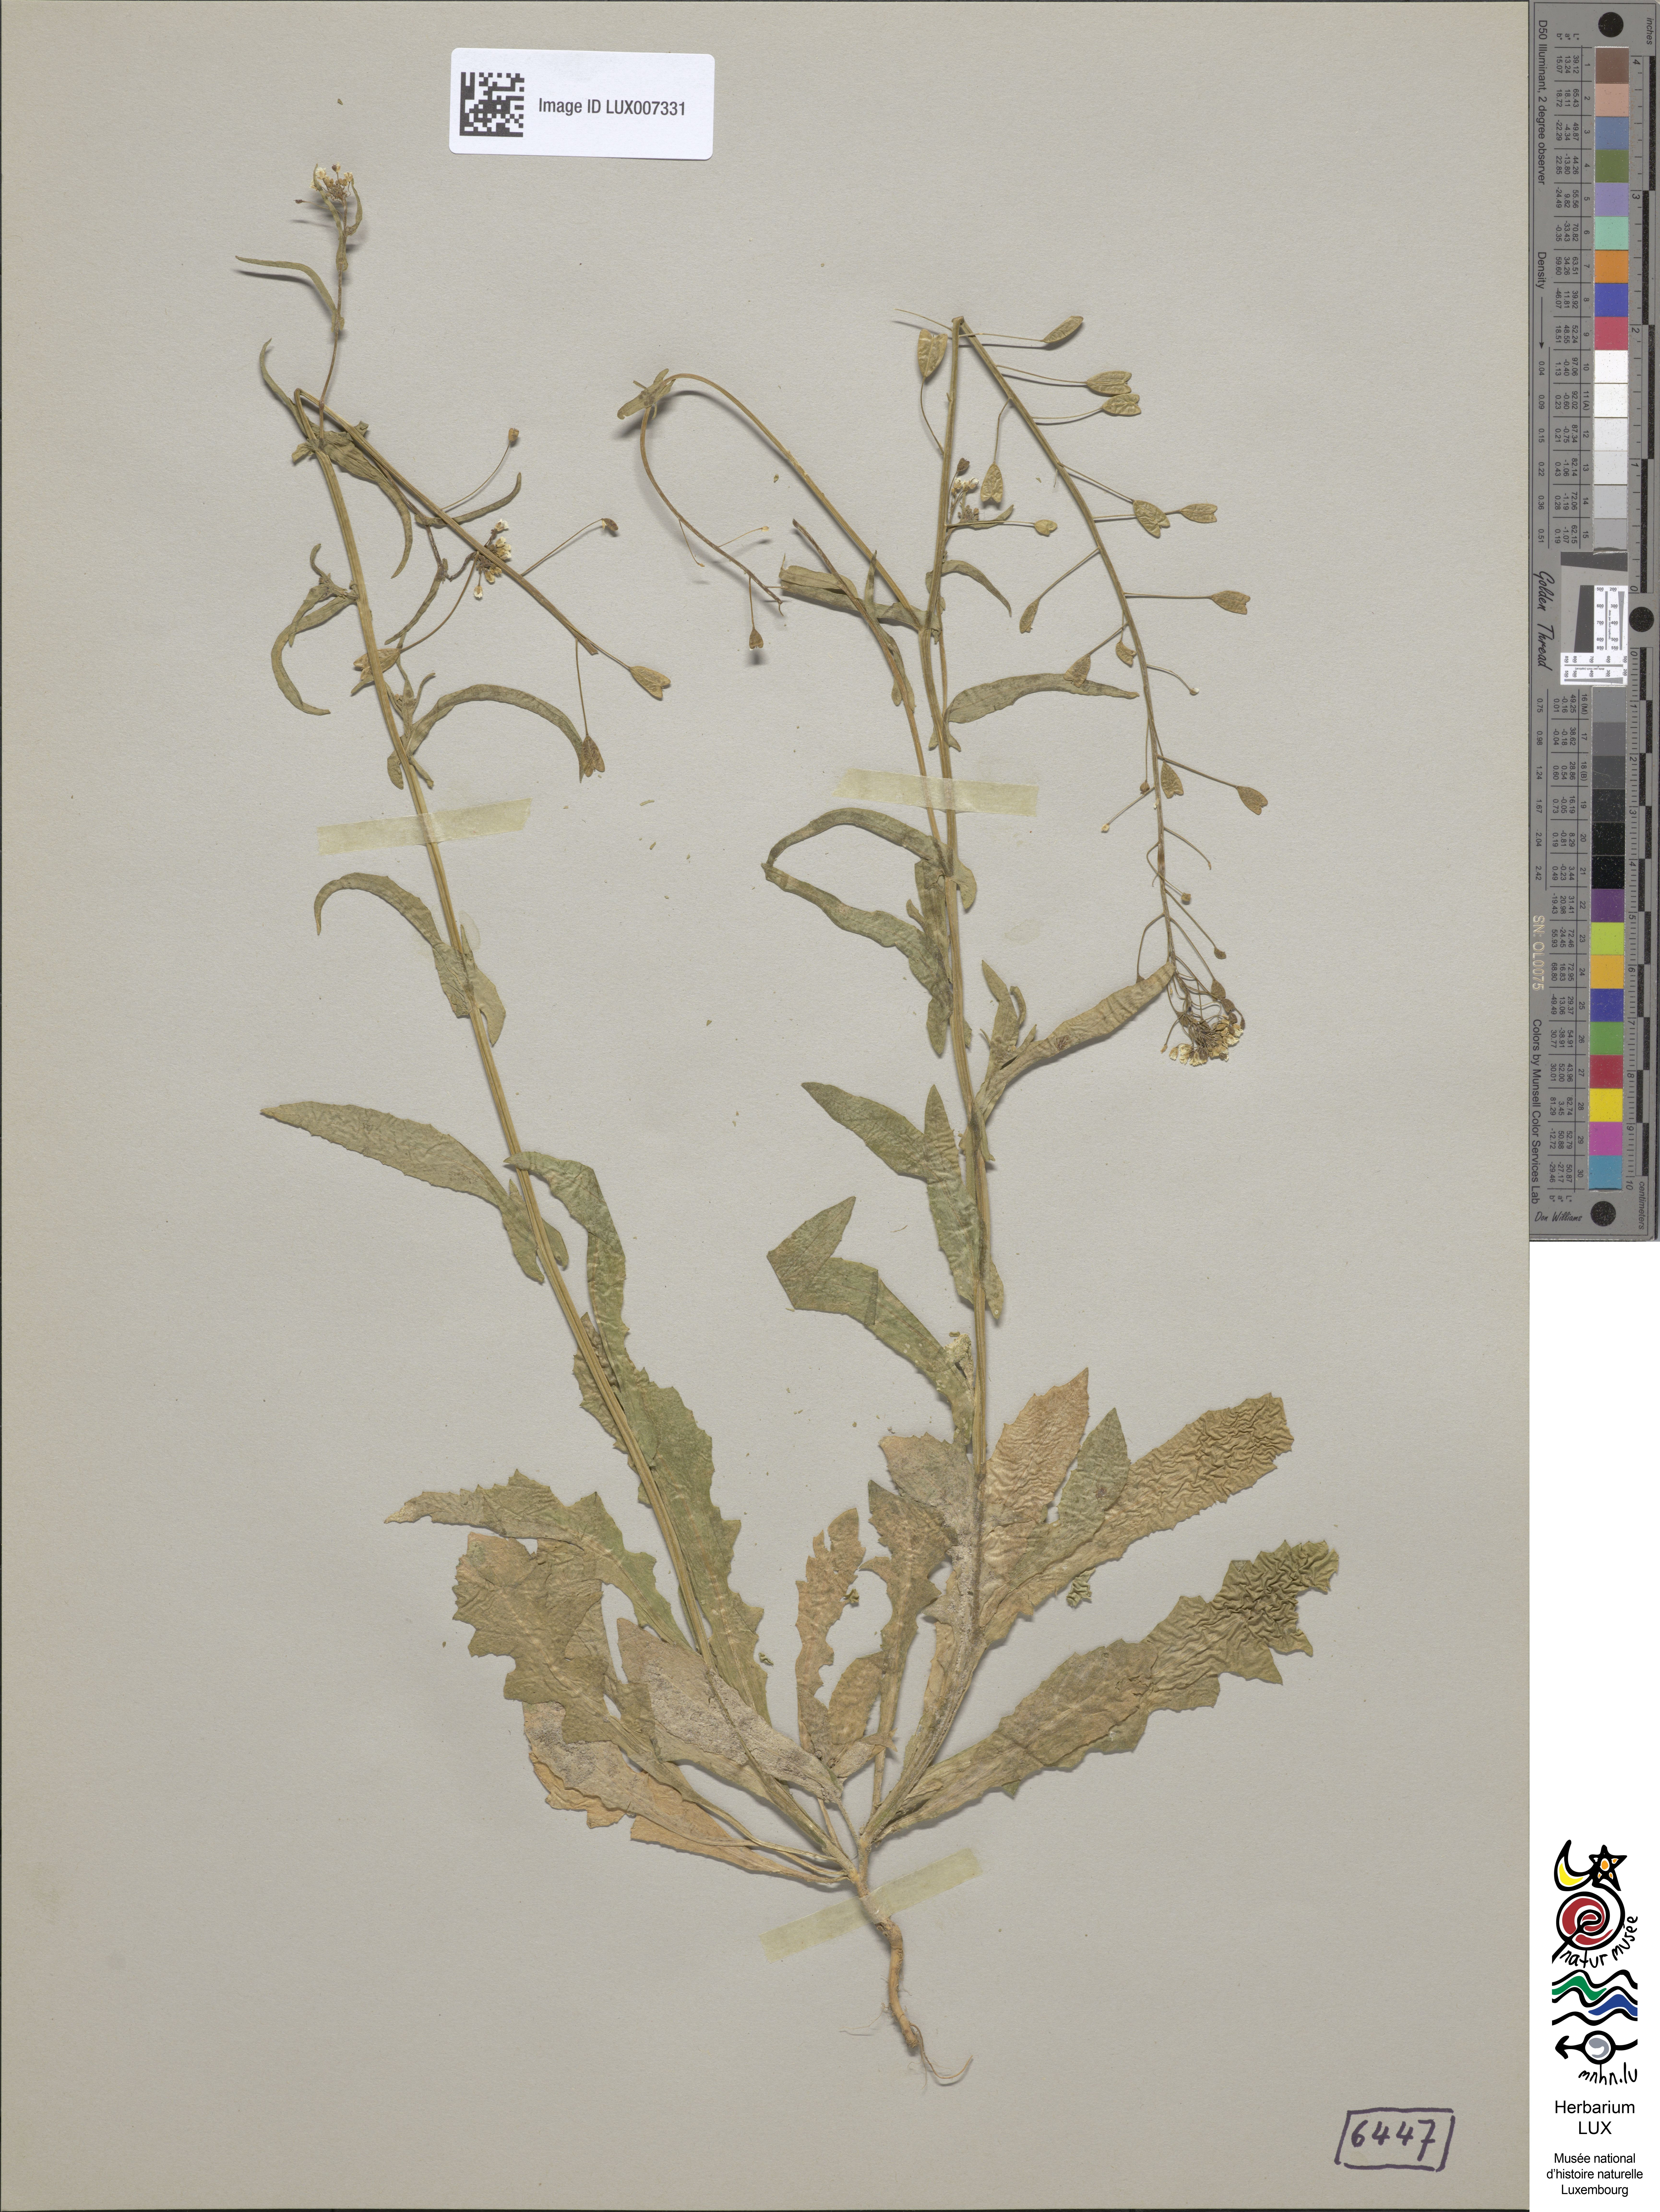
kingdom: Plantae
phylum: Tracheophyta
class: Magnoliopsida
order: Brassicales
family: Brassicaceae
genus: Capsella
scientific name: Capsella bursa-pastoris
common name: Shepherd's purse
